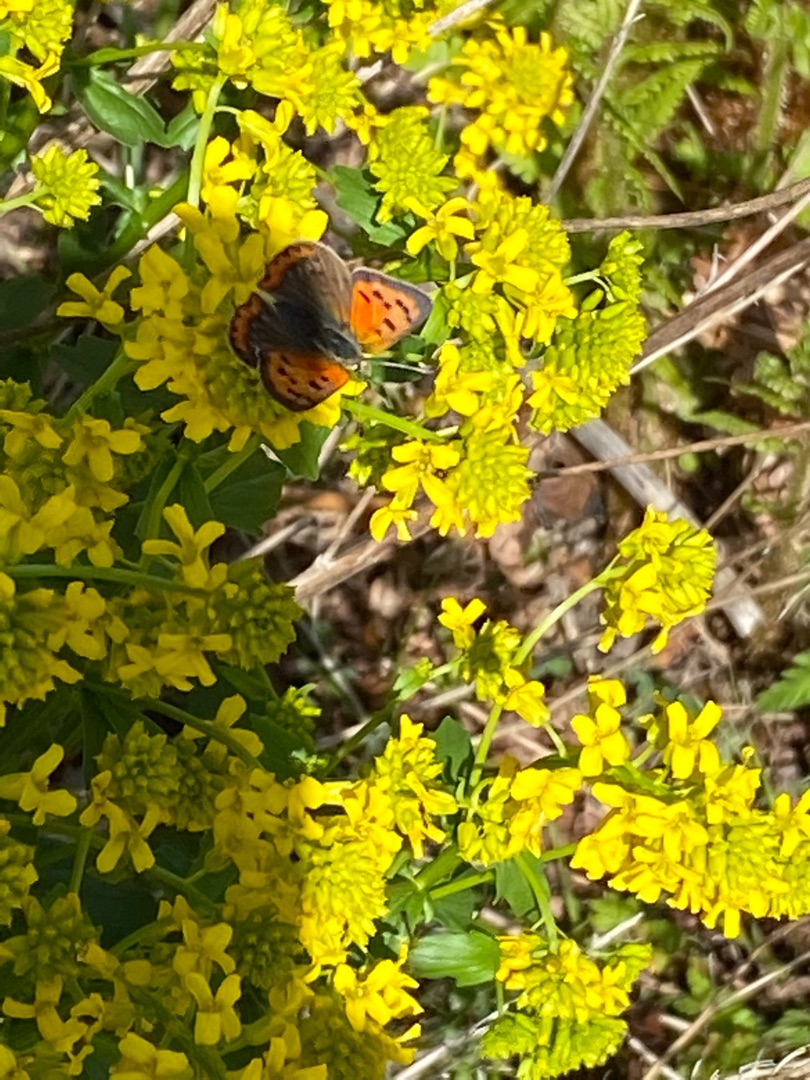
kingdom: Animalia
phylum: Arthropoda
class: Insecta
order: Lepidoptera
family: Lycaenidae
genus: Lycaena
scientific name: Lycaena phlaeas
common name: Lille ildfugl
